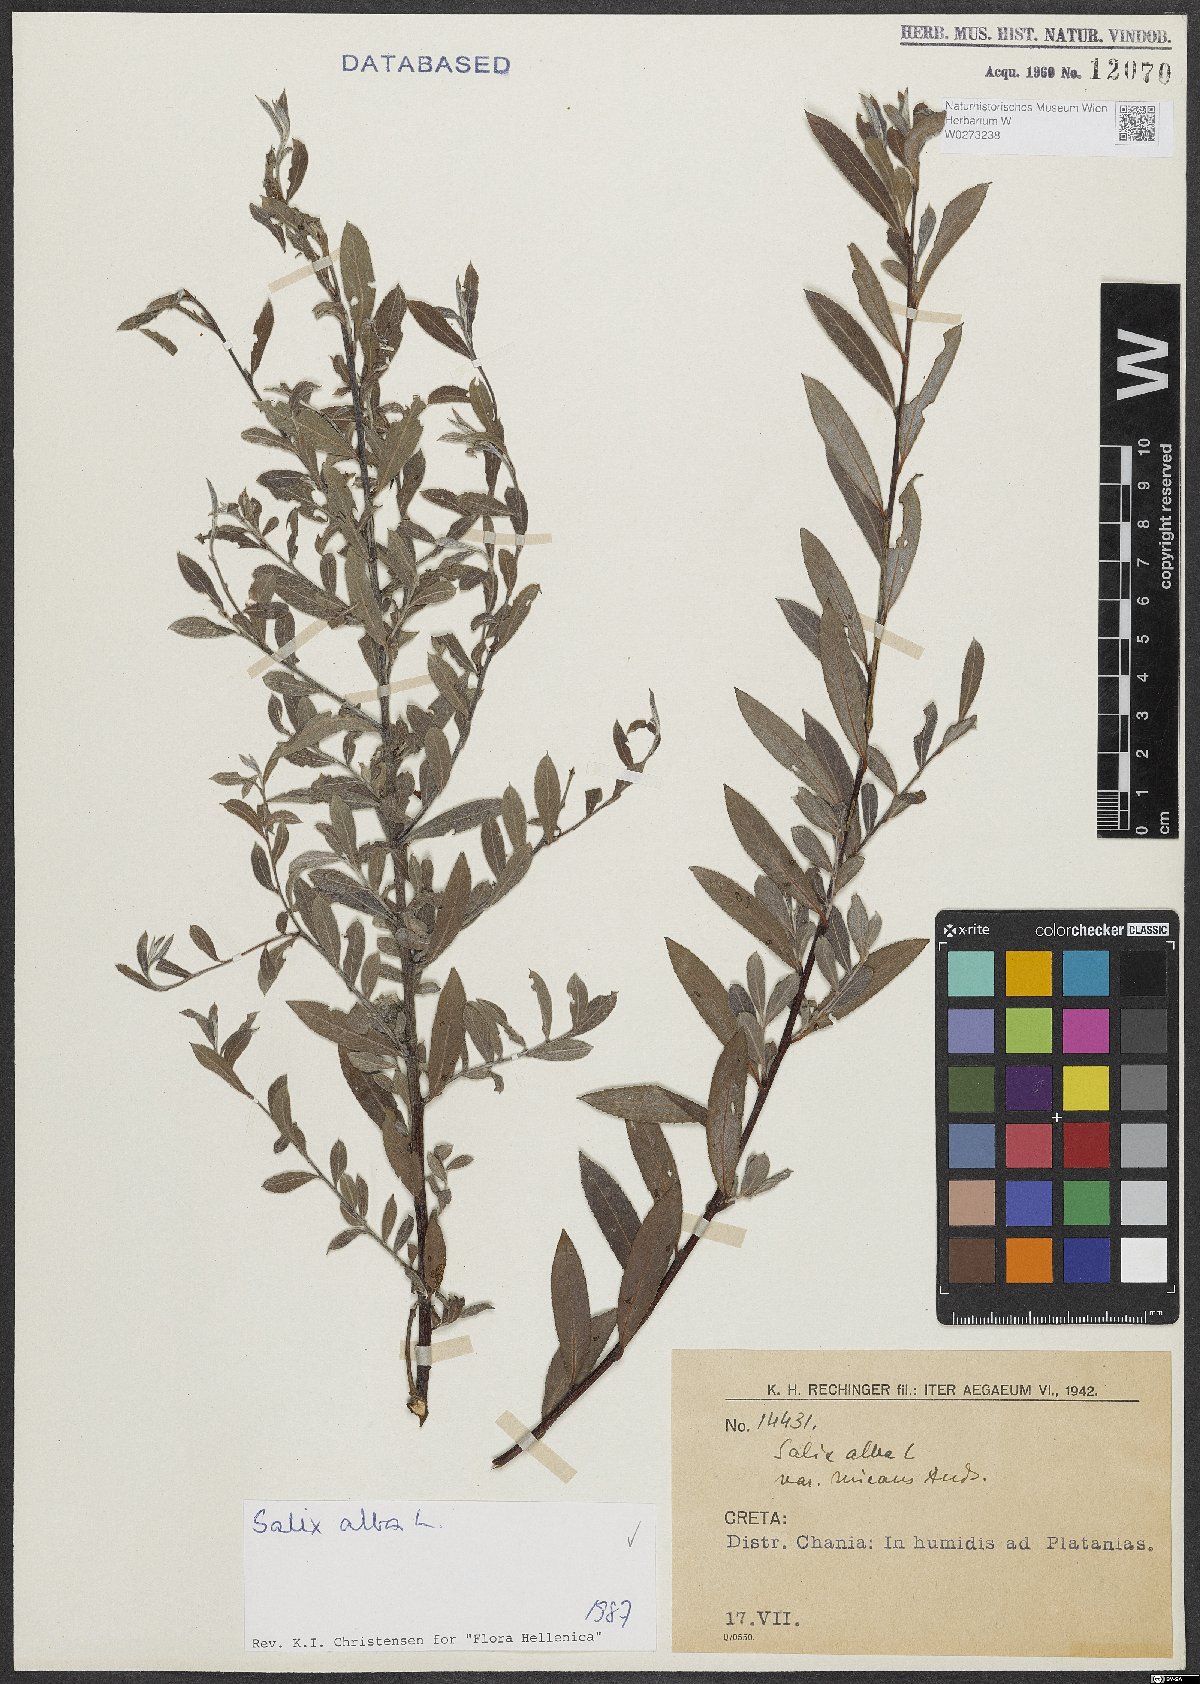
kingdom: Plantae
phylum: Tracheophyta
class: Magnoliopsida
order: Malpighiales
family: Salicaceae
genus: Salix
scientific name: Salix alba
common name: White willow
